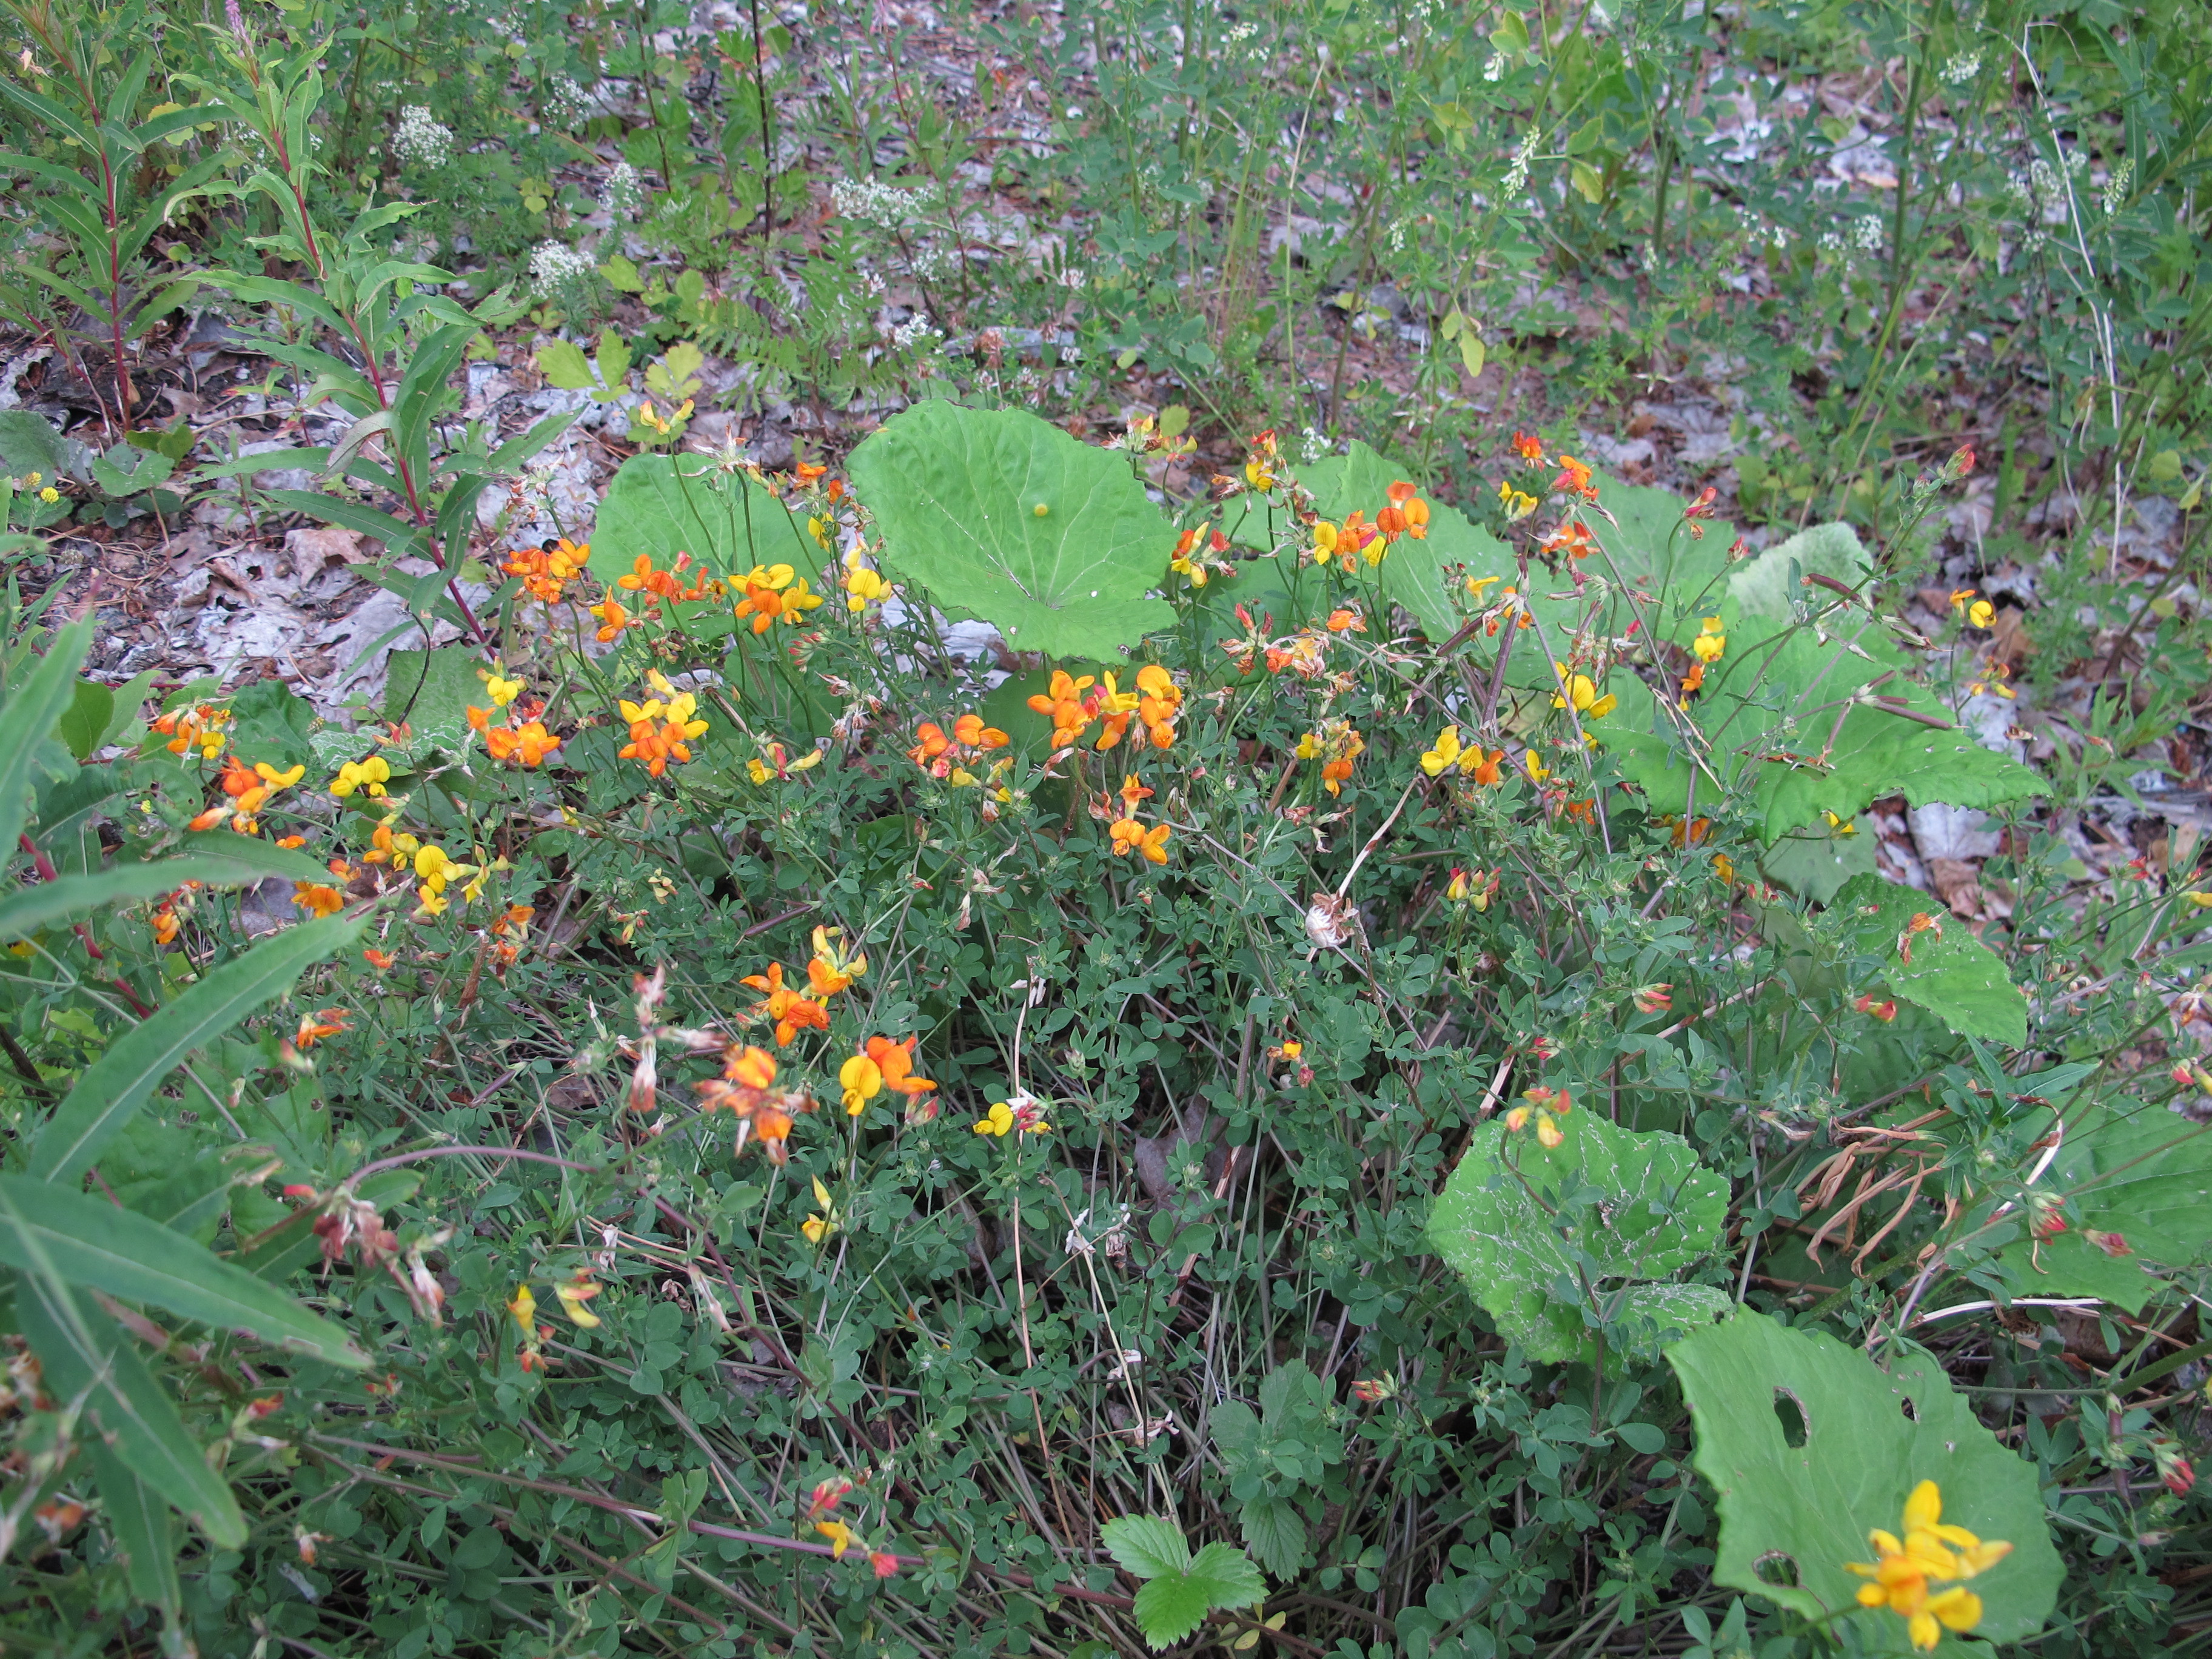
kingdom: Plantae
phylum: Tracheophyta
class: Magnoliopsida
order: Fabales
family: Fabaceae
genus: Lotus
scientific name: Lotus corniculatus
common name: Common bird's-foot-trefoil
